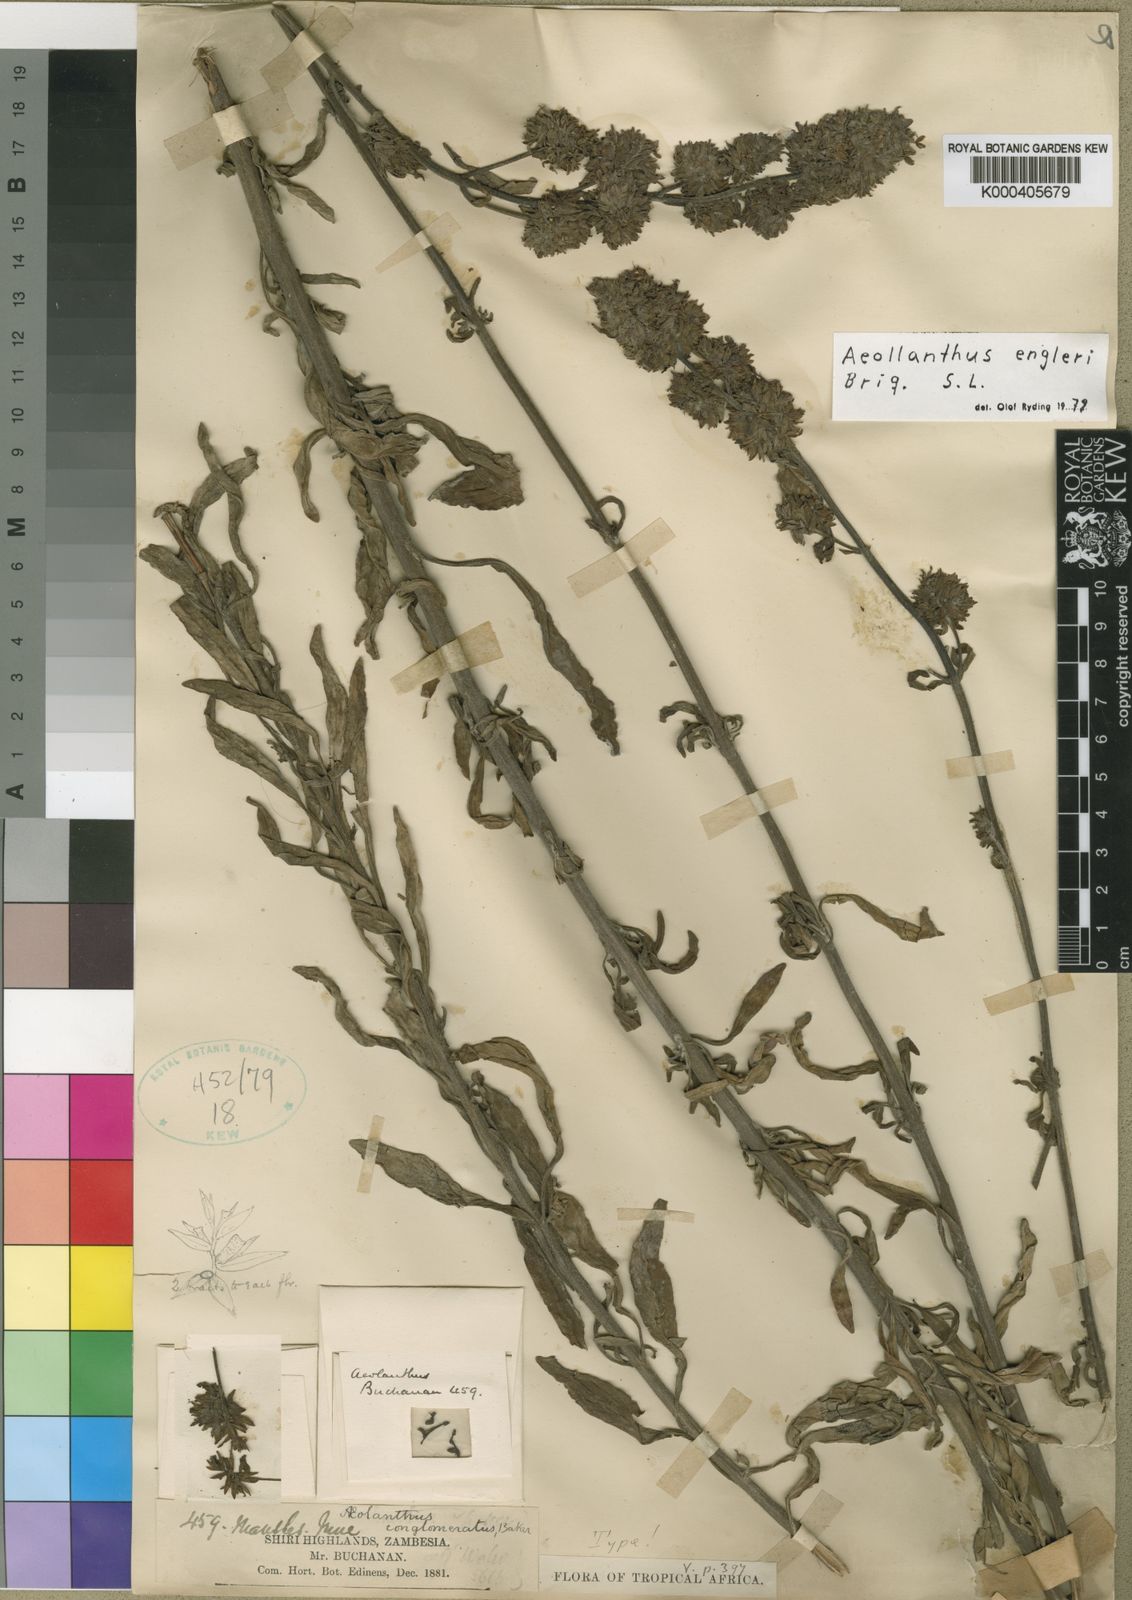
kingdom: Plantae
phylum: Tracheophyta
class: Magnoliopsida
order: Lamiales
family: Lamiaceae
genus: Aeollanthus
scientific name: Aeollanthus engleri
